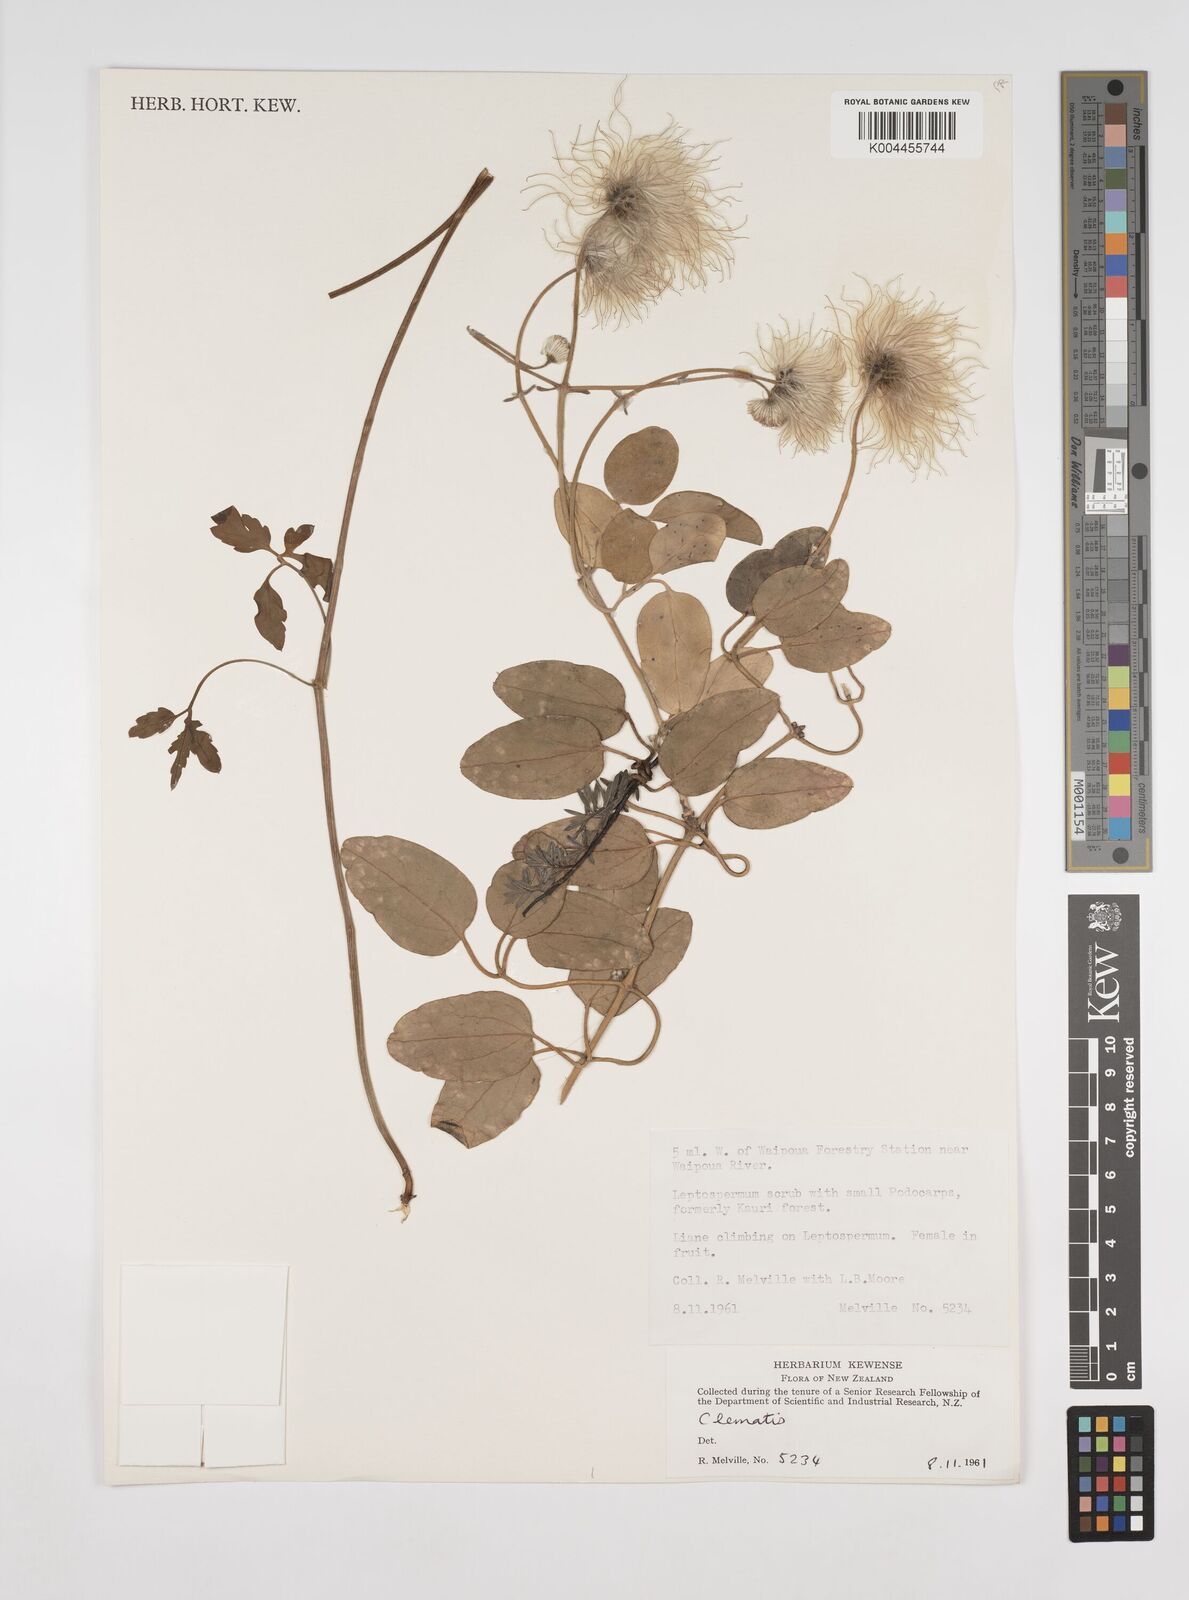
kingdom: Plantae
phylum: Tracheophyta
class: Magnoliopsida
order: Ranunculales
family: Ranunculaceae
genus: Clematis
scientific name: Clematis
